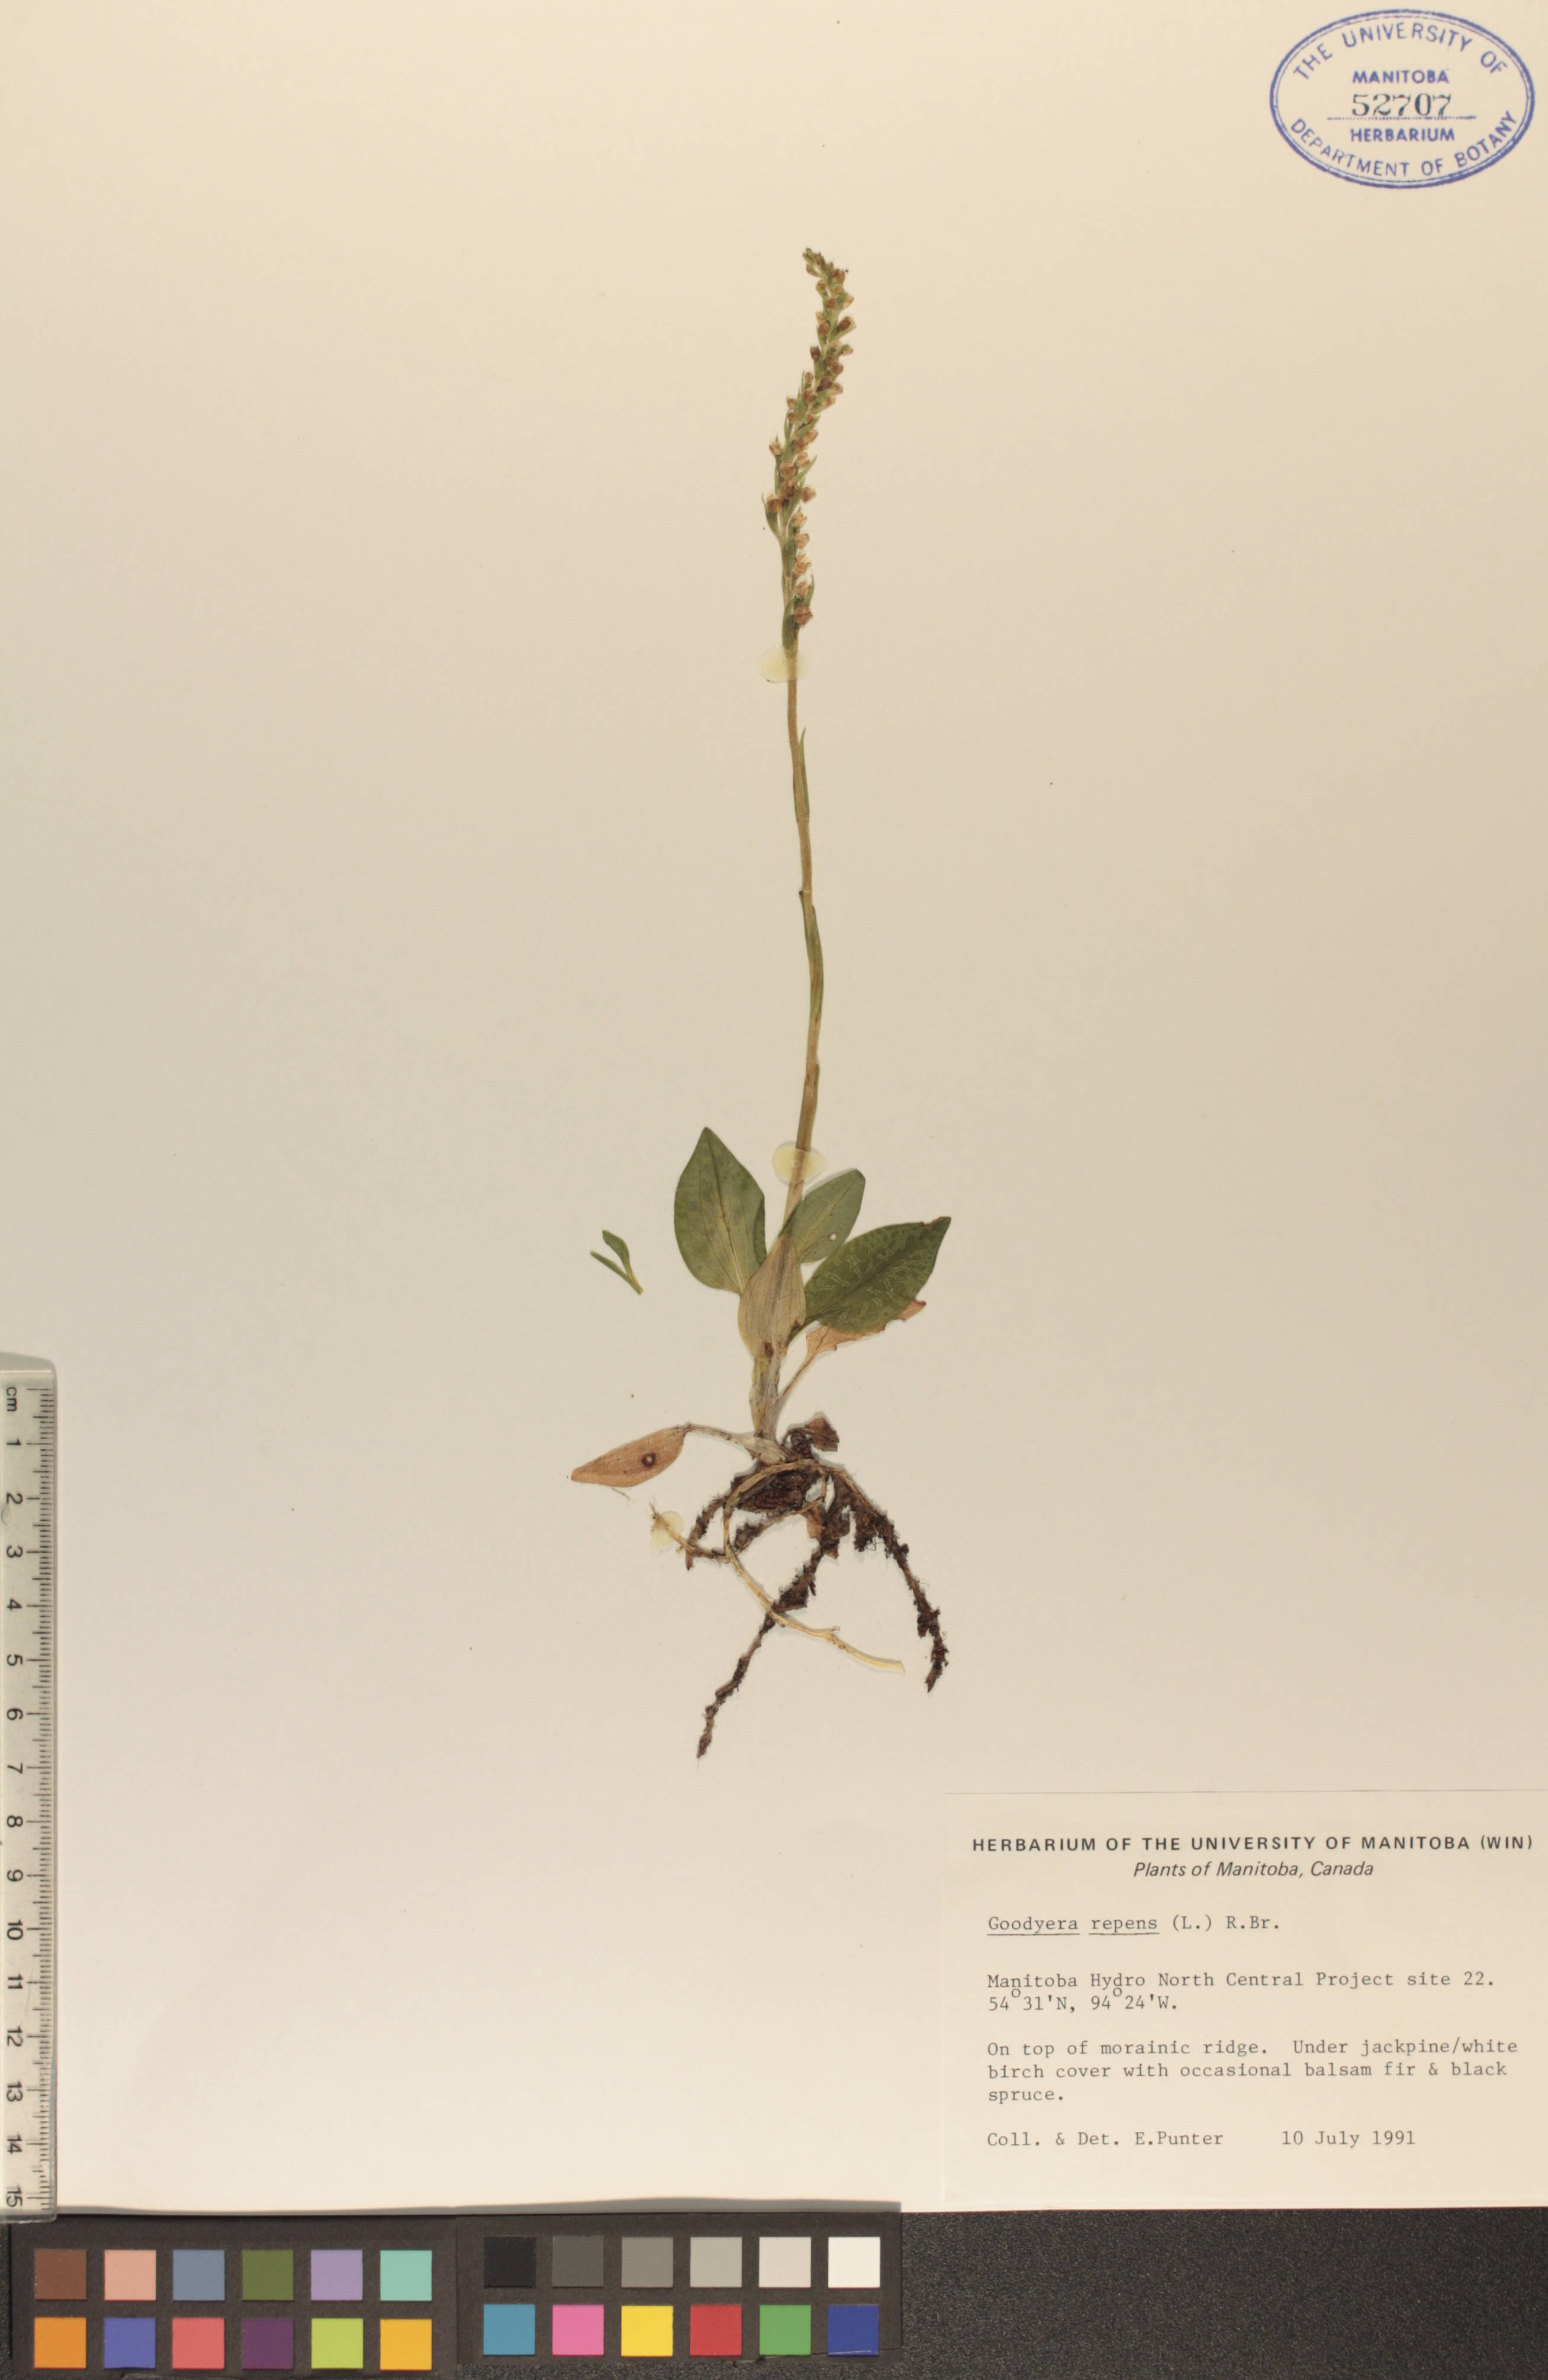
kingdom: Plantae
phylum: Tracheophyta
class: Liliopsida
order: Asparagales
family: Orchidaceae
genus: Goodyera
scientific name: Goodyera repens
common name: Creeping lady's-tresses
